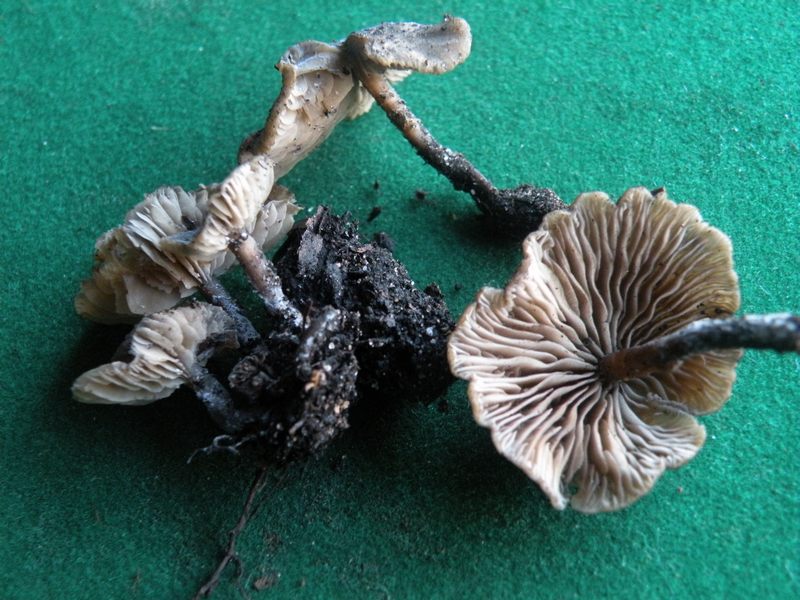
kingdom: Fungi
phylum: Basidiomycota
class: Agaricomycetes
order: Agaricales
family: Lyophyllaceae
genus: Tephrocybe
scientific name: Tephrocybe anthracophila
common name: svedje-gråblad
